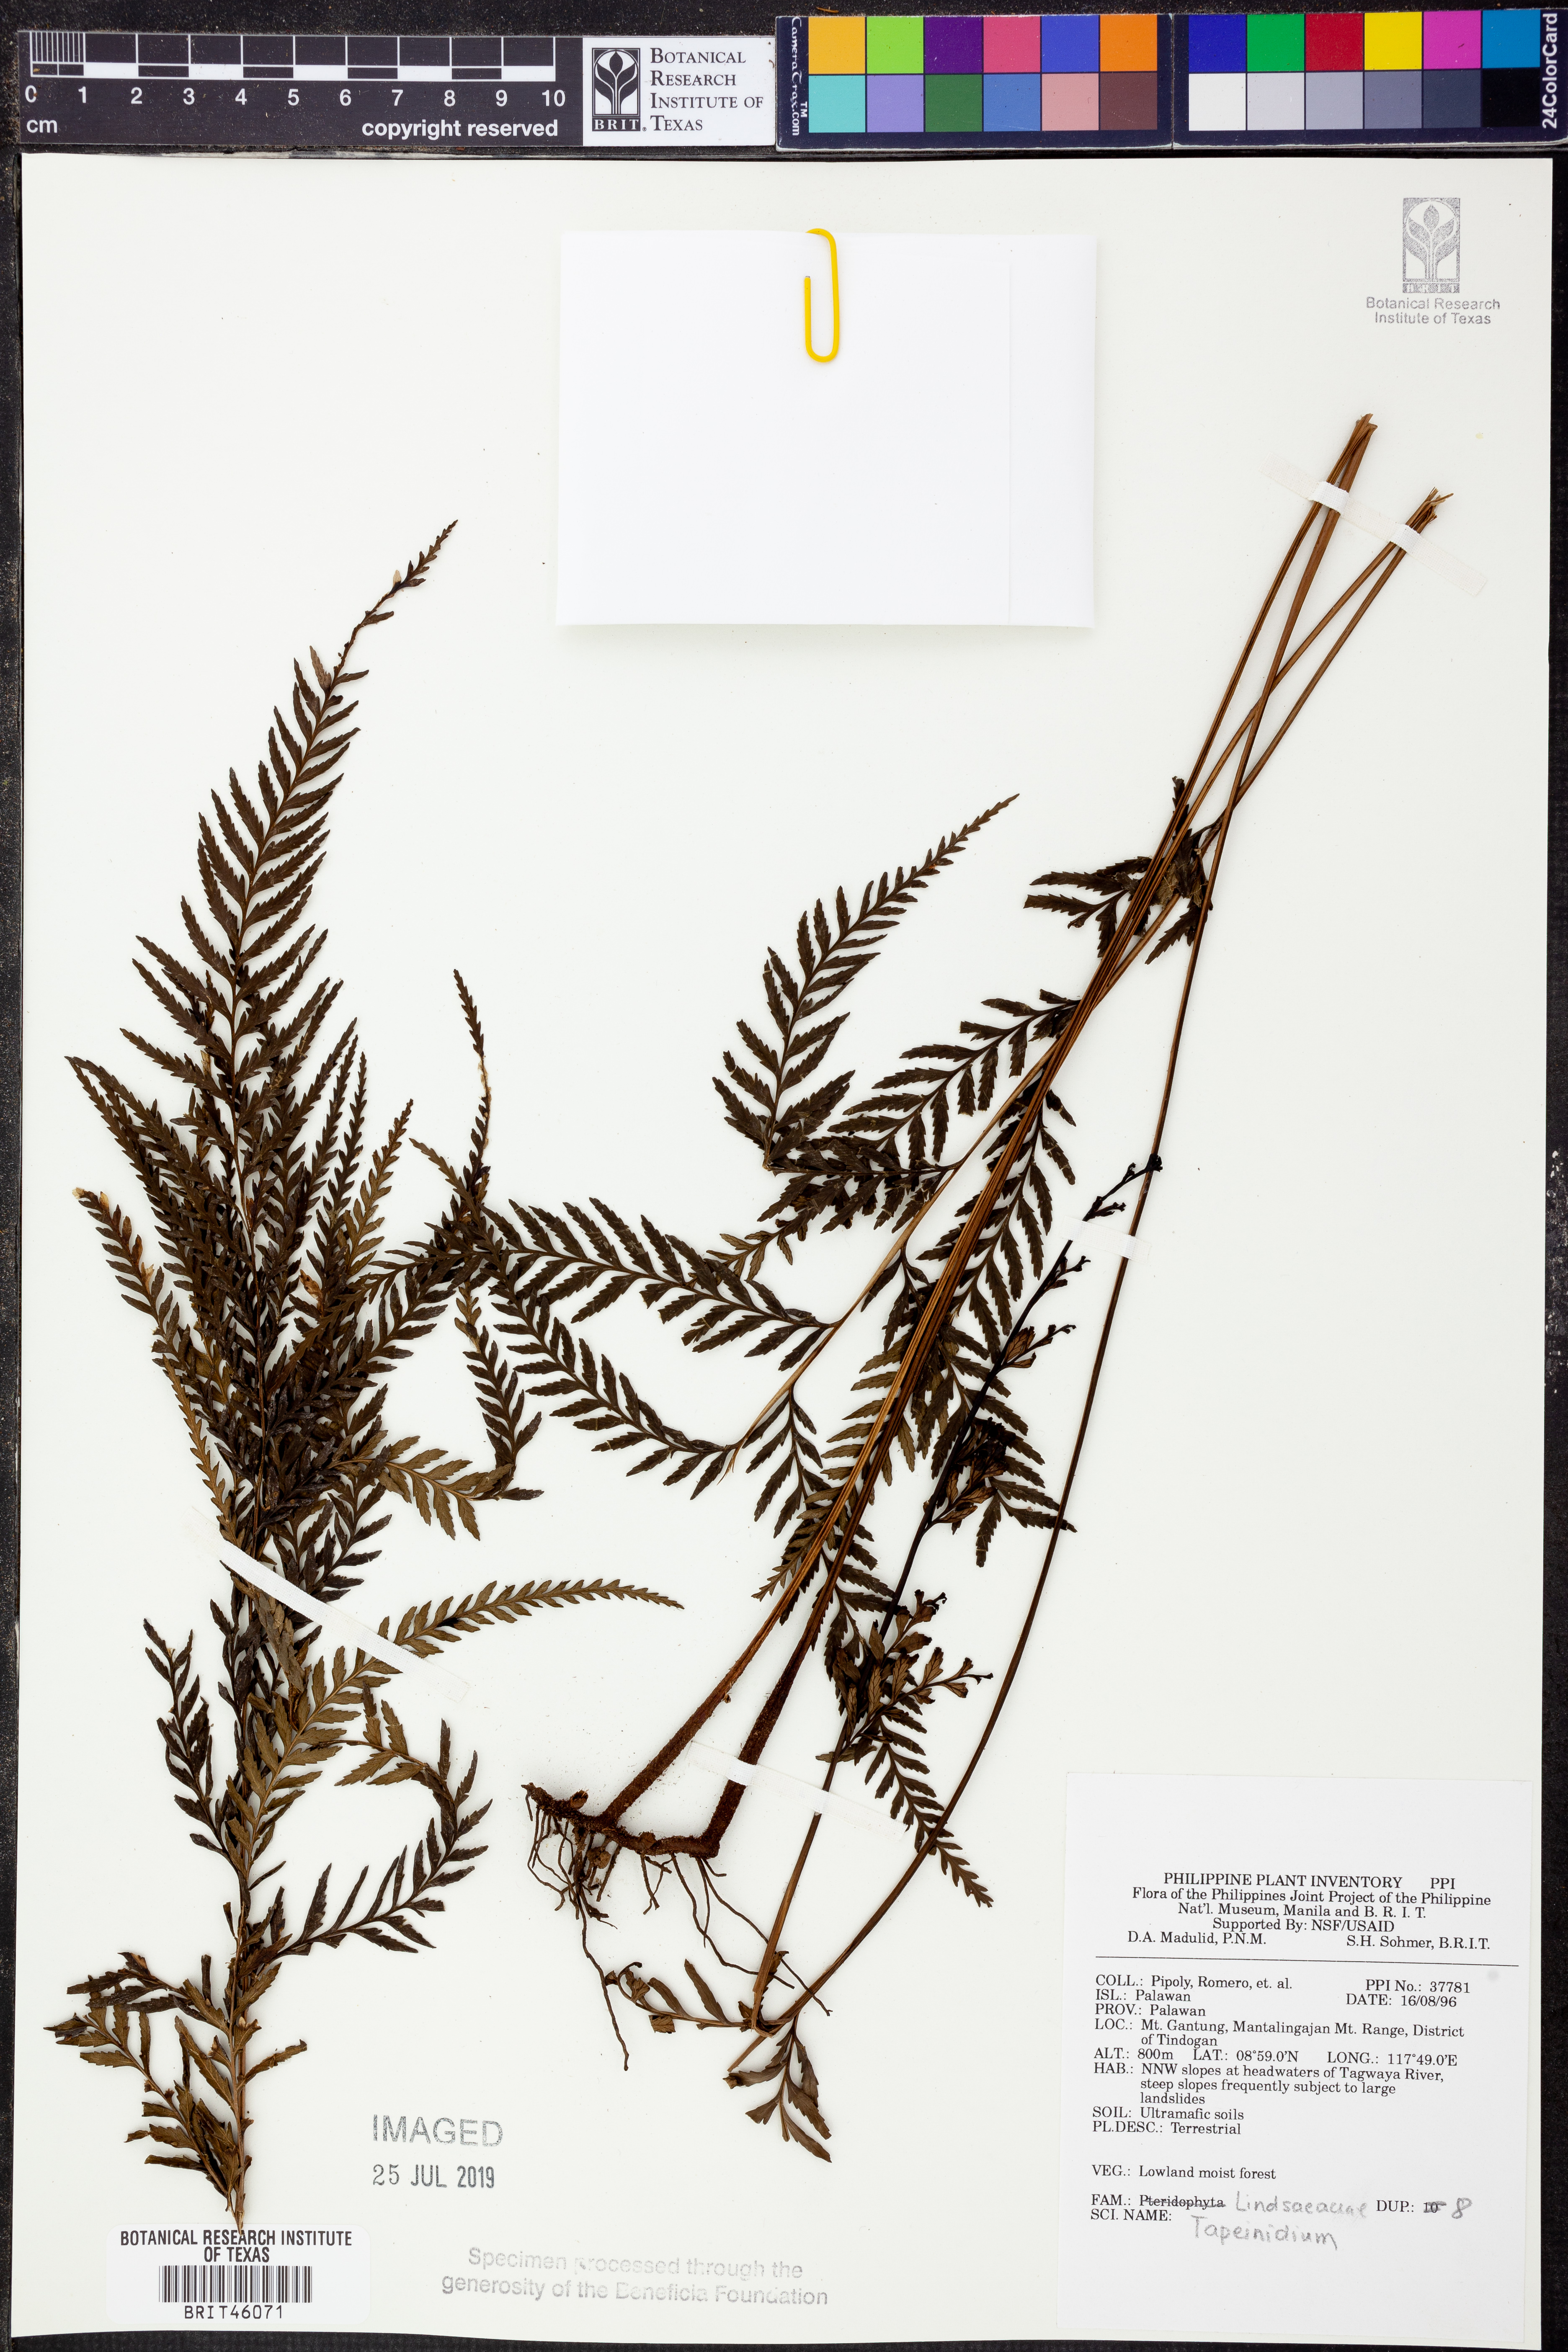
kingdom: Plantae
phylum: Tracheophyta
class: Polypodiopsida
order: Polypodiales
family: Lindsaeaceae
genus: Tapeinidium
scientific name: Tapeinidium
